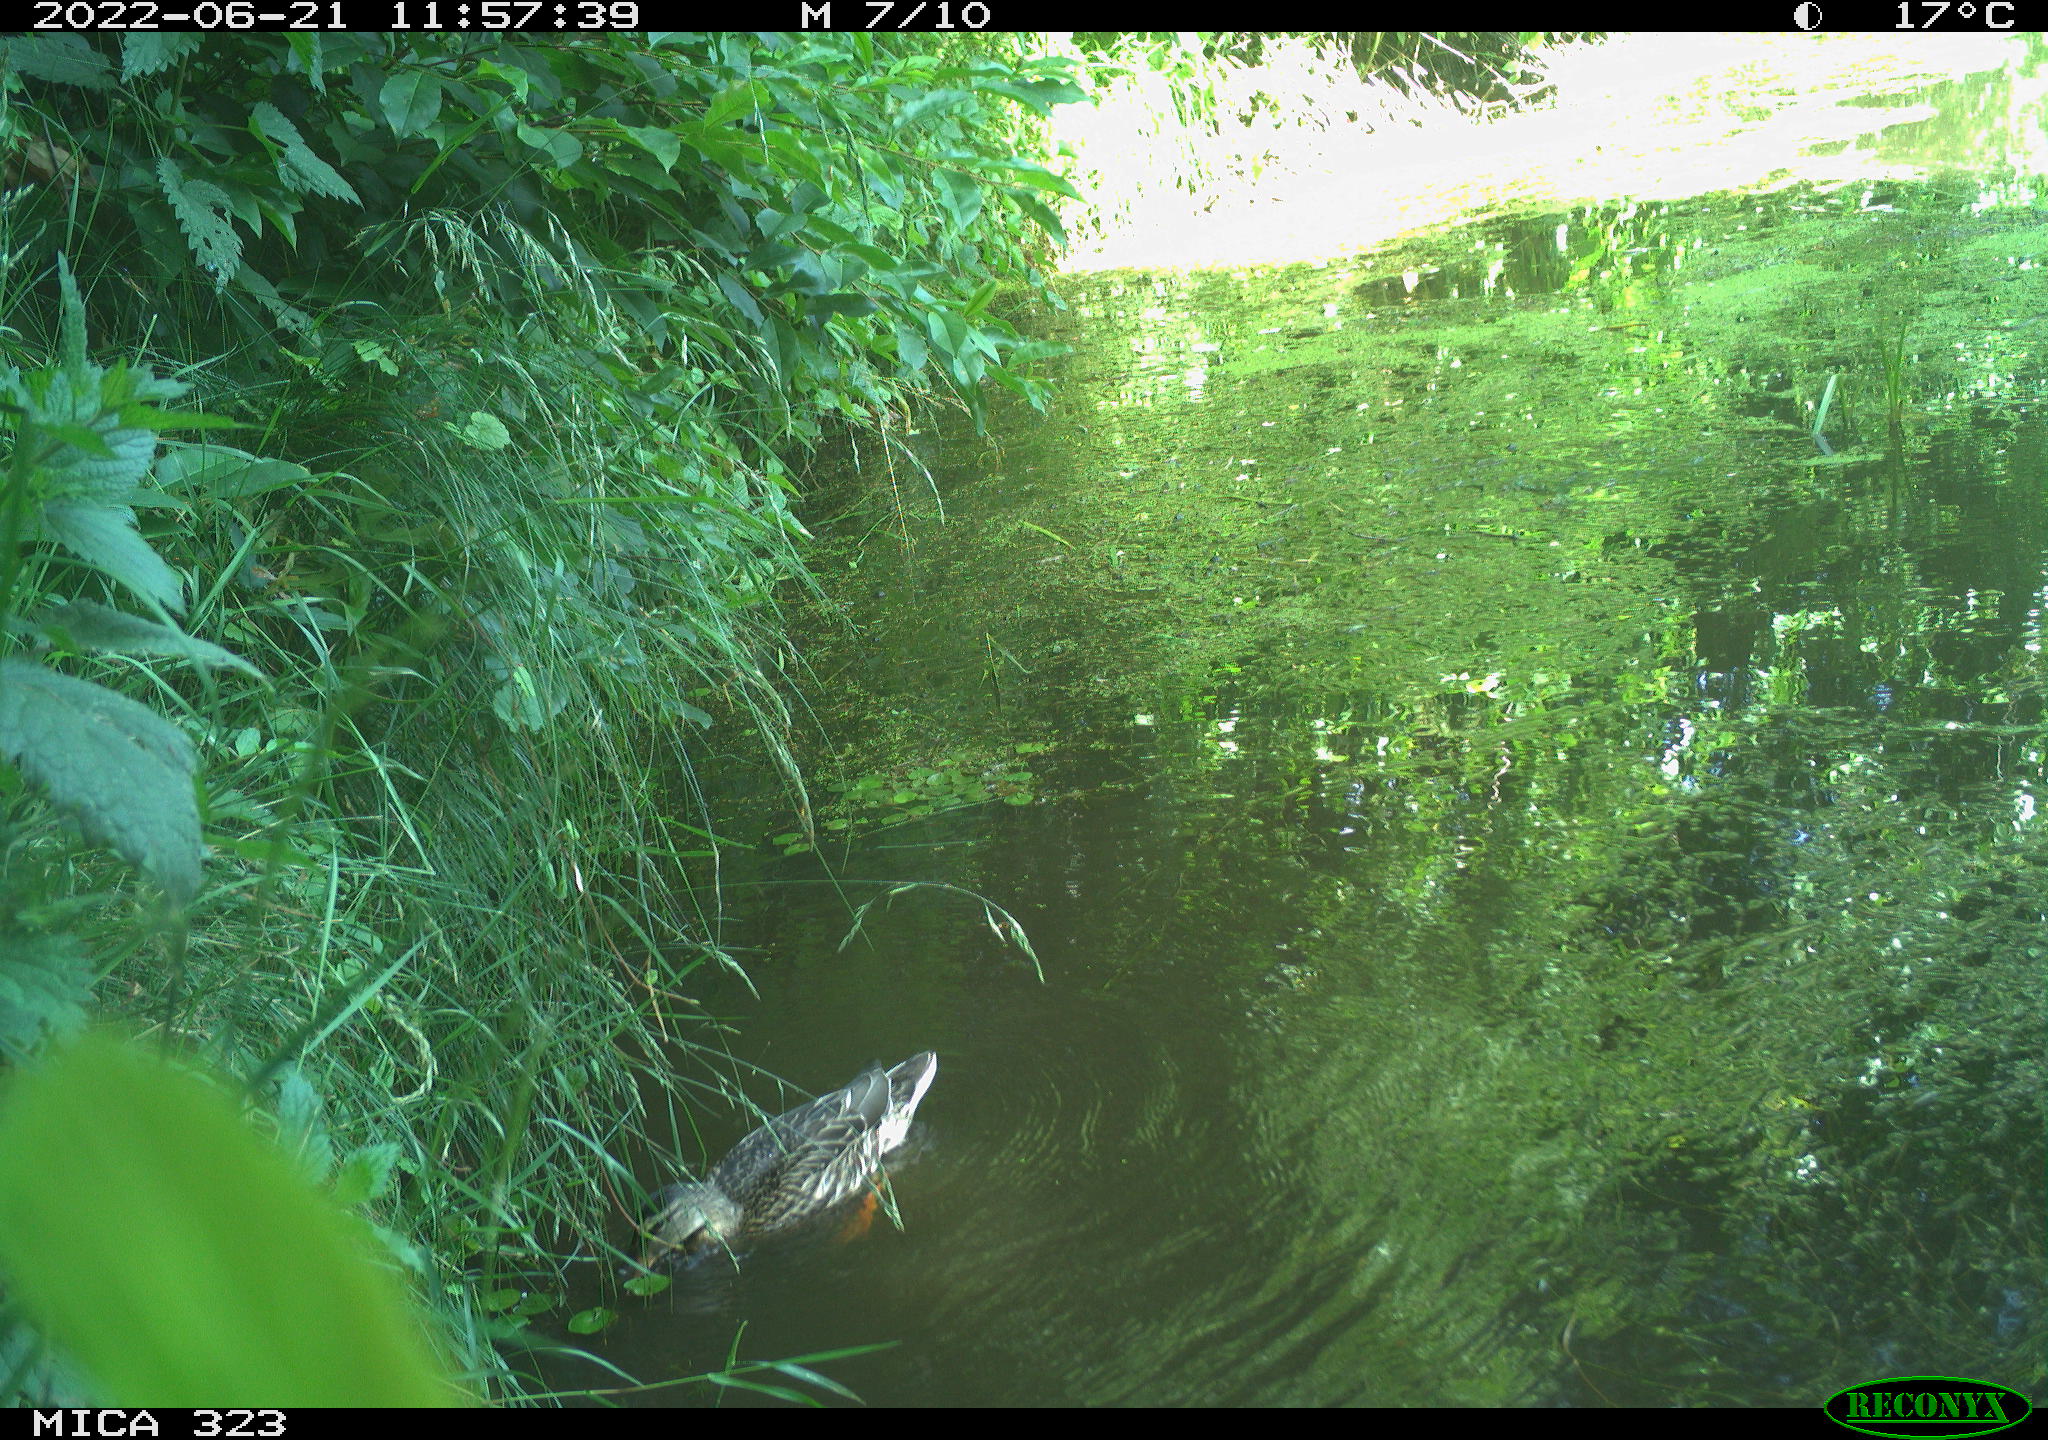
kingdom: Animalia
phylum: Chordata
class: Aves
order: Anseriformes
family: Anatidae
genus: Anas
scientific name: Anas platyrhynchos
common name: Mallard
